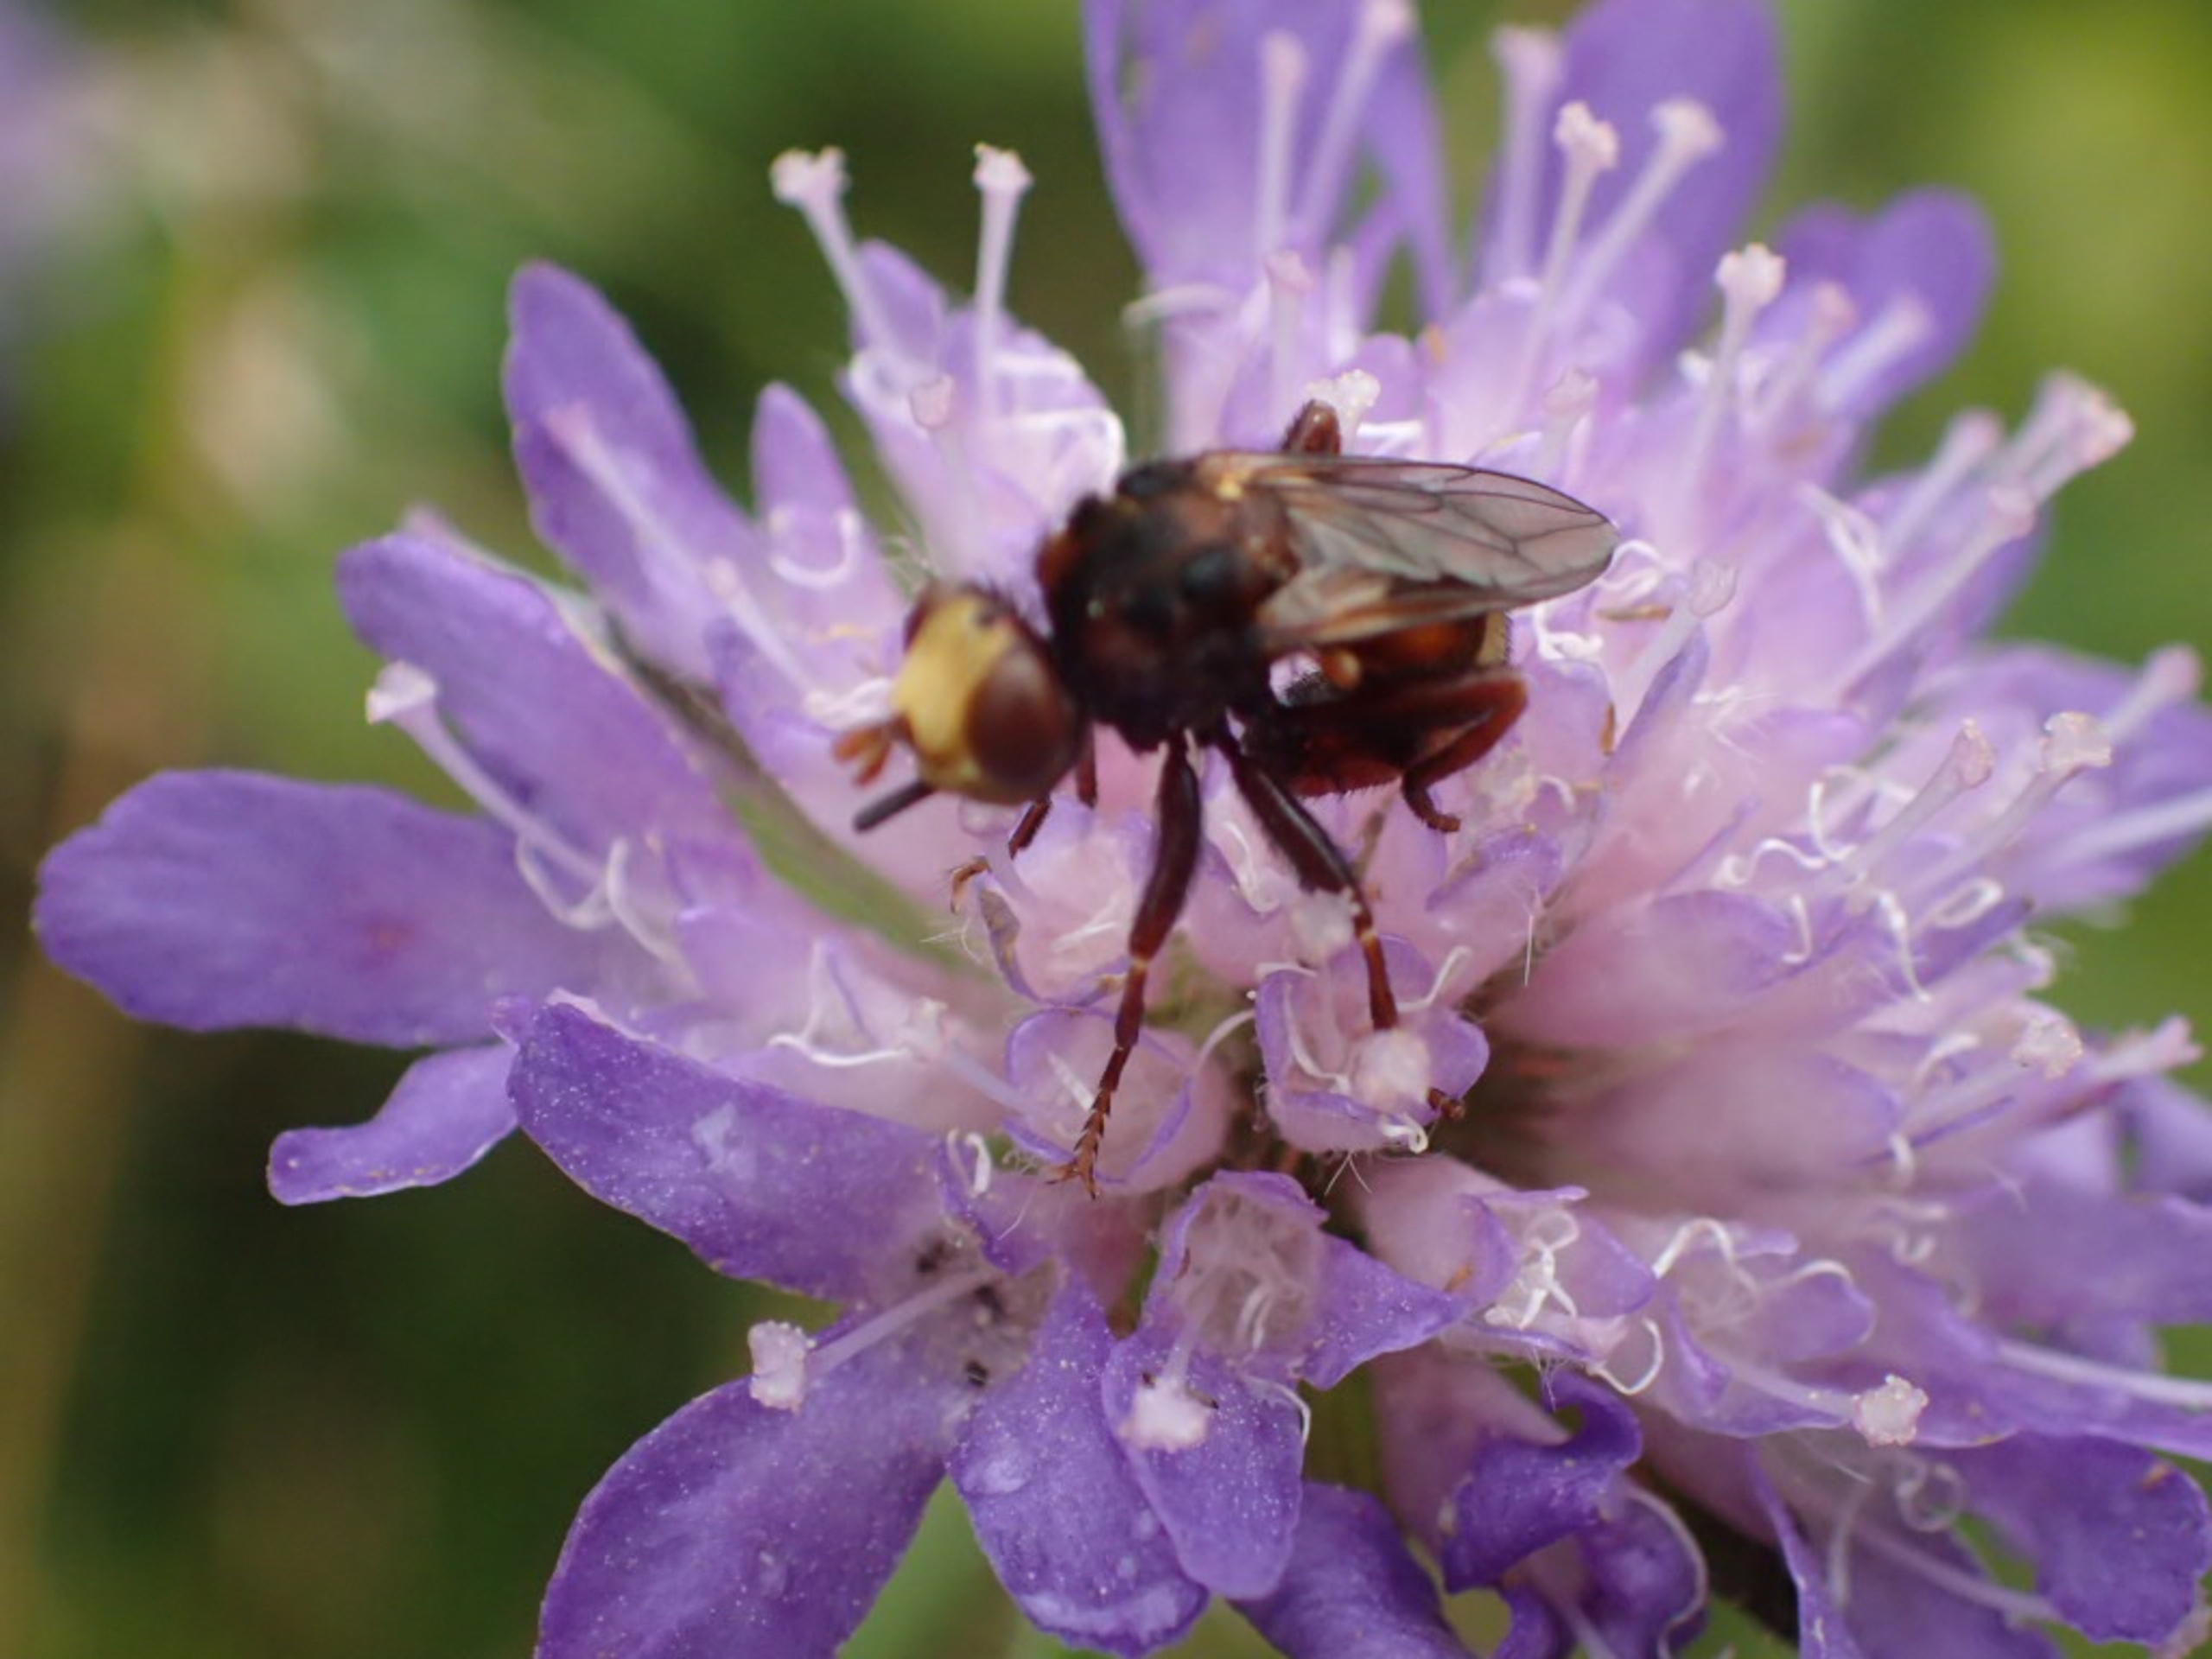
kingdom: Animalia
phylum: Arthropoda
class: Insecta
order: Diptera
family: Conopidae
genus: Sicus
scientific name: Sicus ferrugineus
